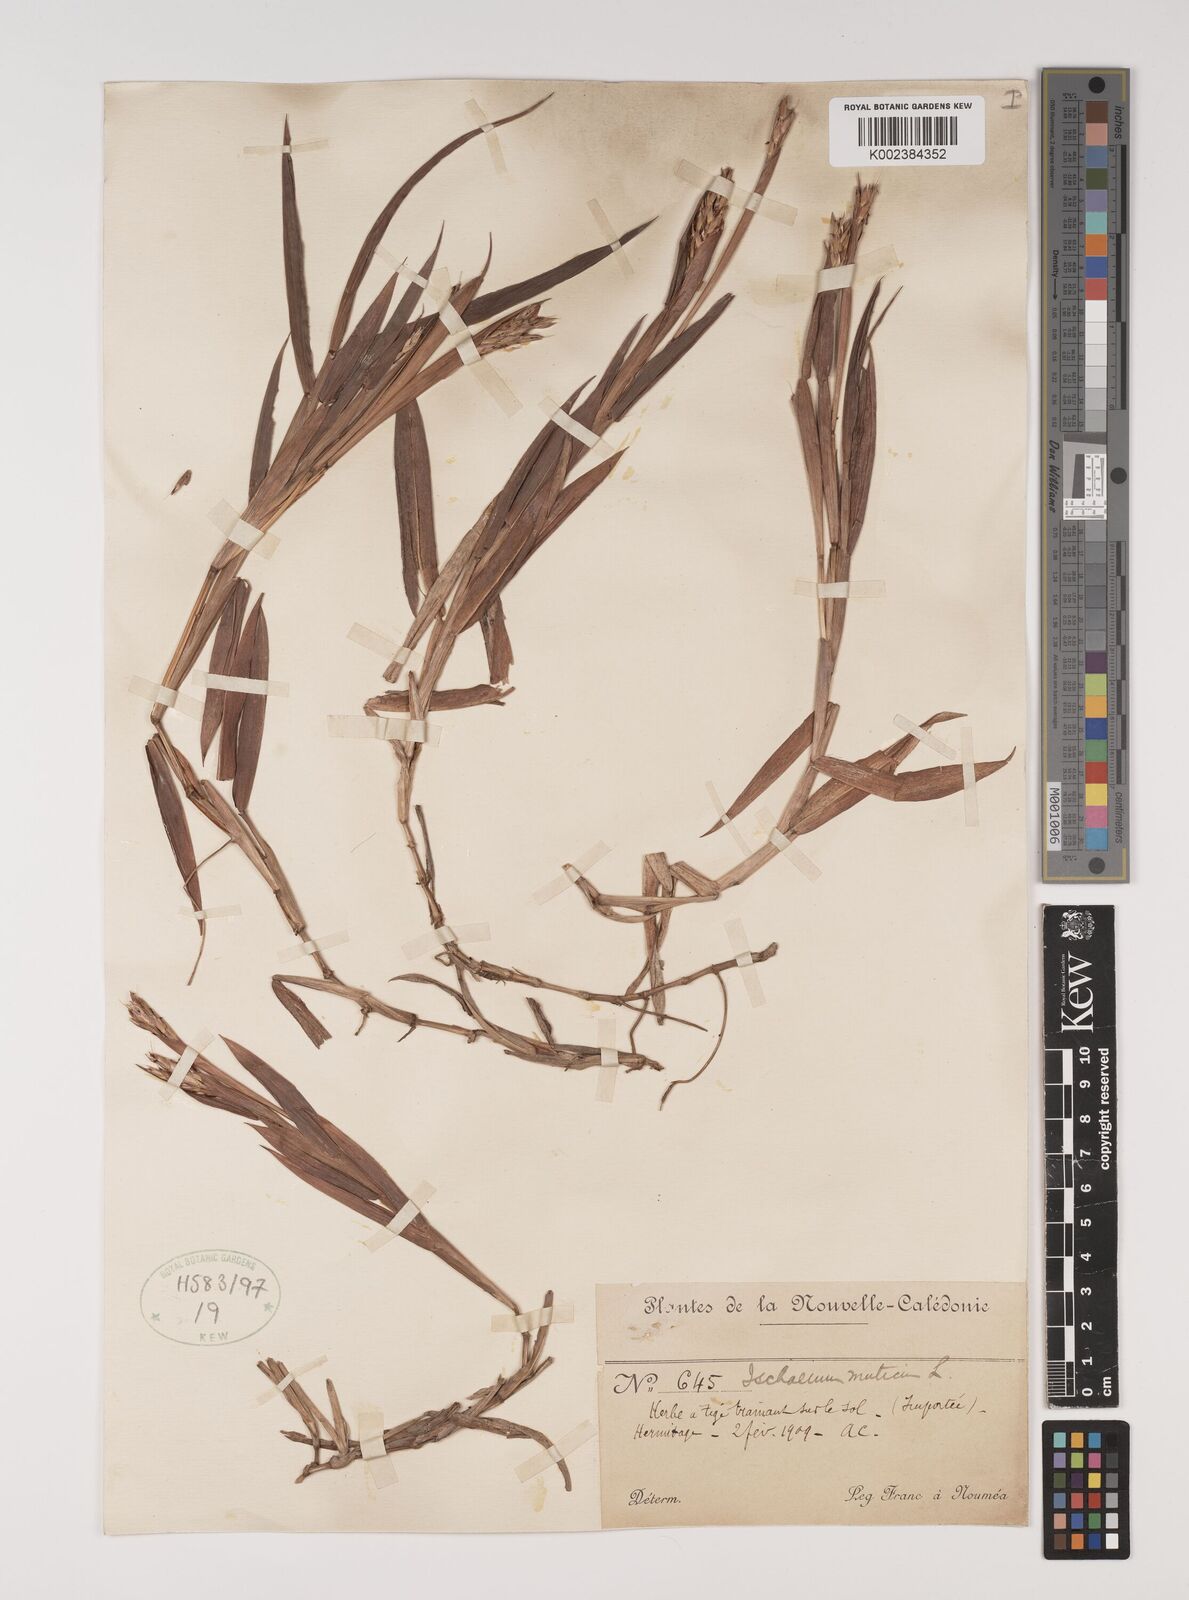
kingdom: Plantae
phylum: Tracheophyta
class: Liliopsida
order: Poales
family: Poaceae
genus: Ischaemum
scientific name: Ischaemum muticum
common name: Drought grass
